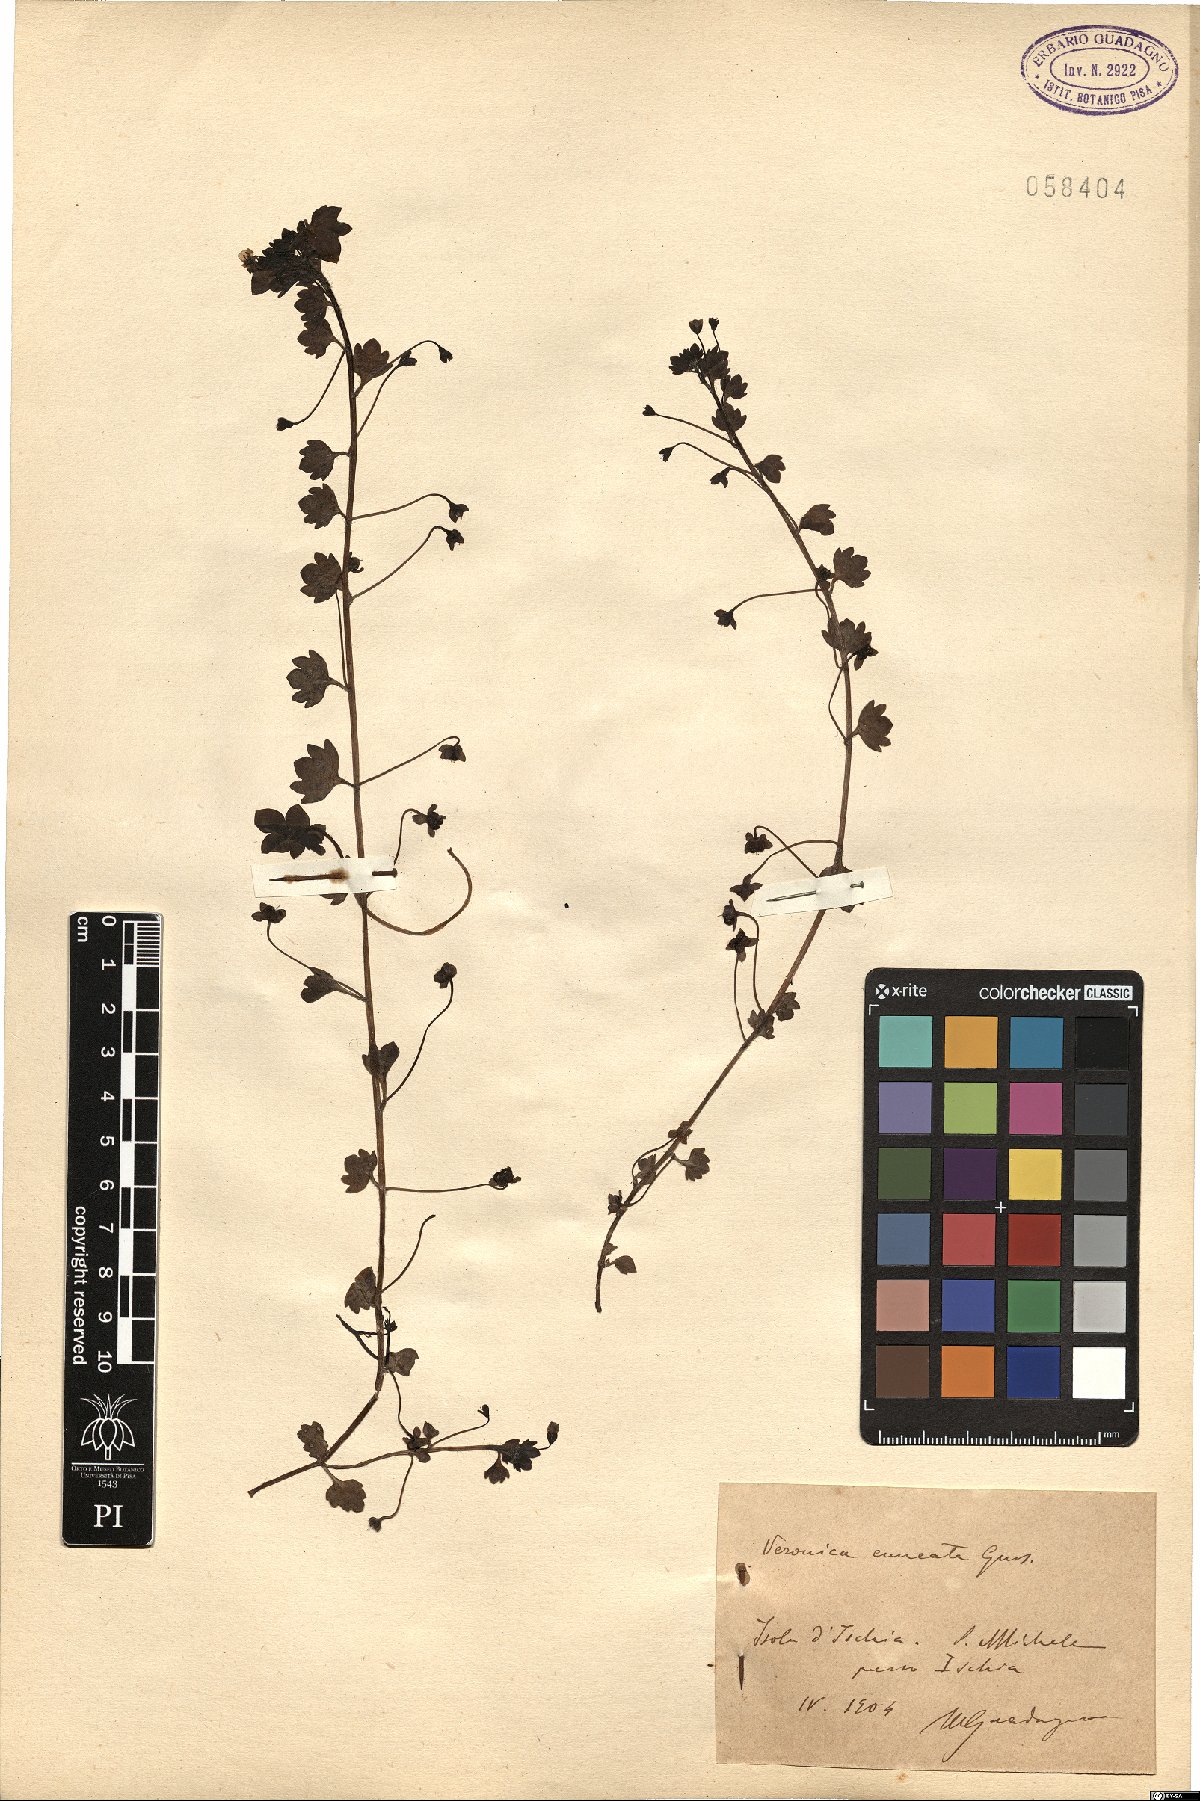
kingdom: Plantae
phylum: Tracheophyta
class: Magnoliopsida
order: Lamiales
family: Plantaginaceae
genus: Veronica
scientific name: Veronica cymbalaria
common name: Pale speedwell
